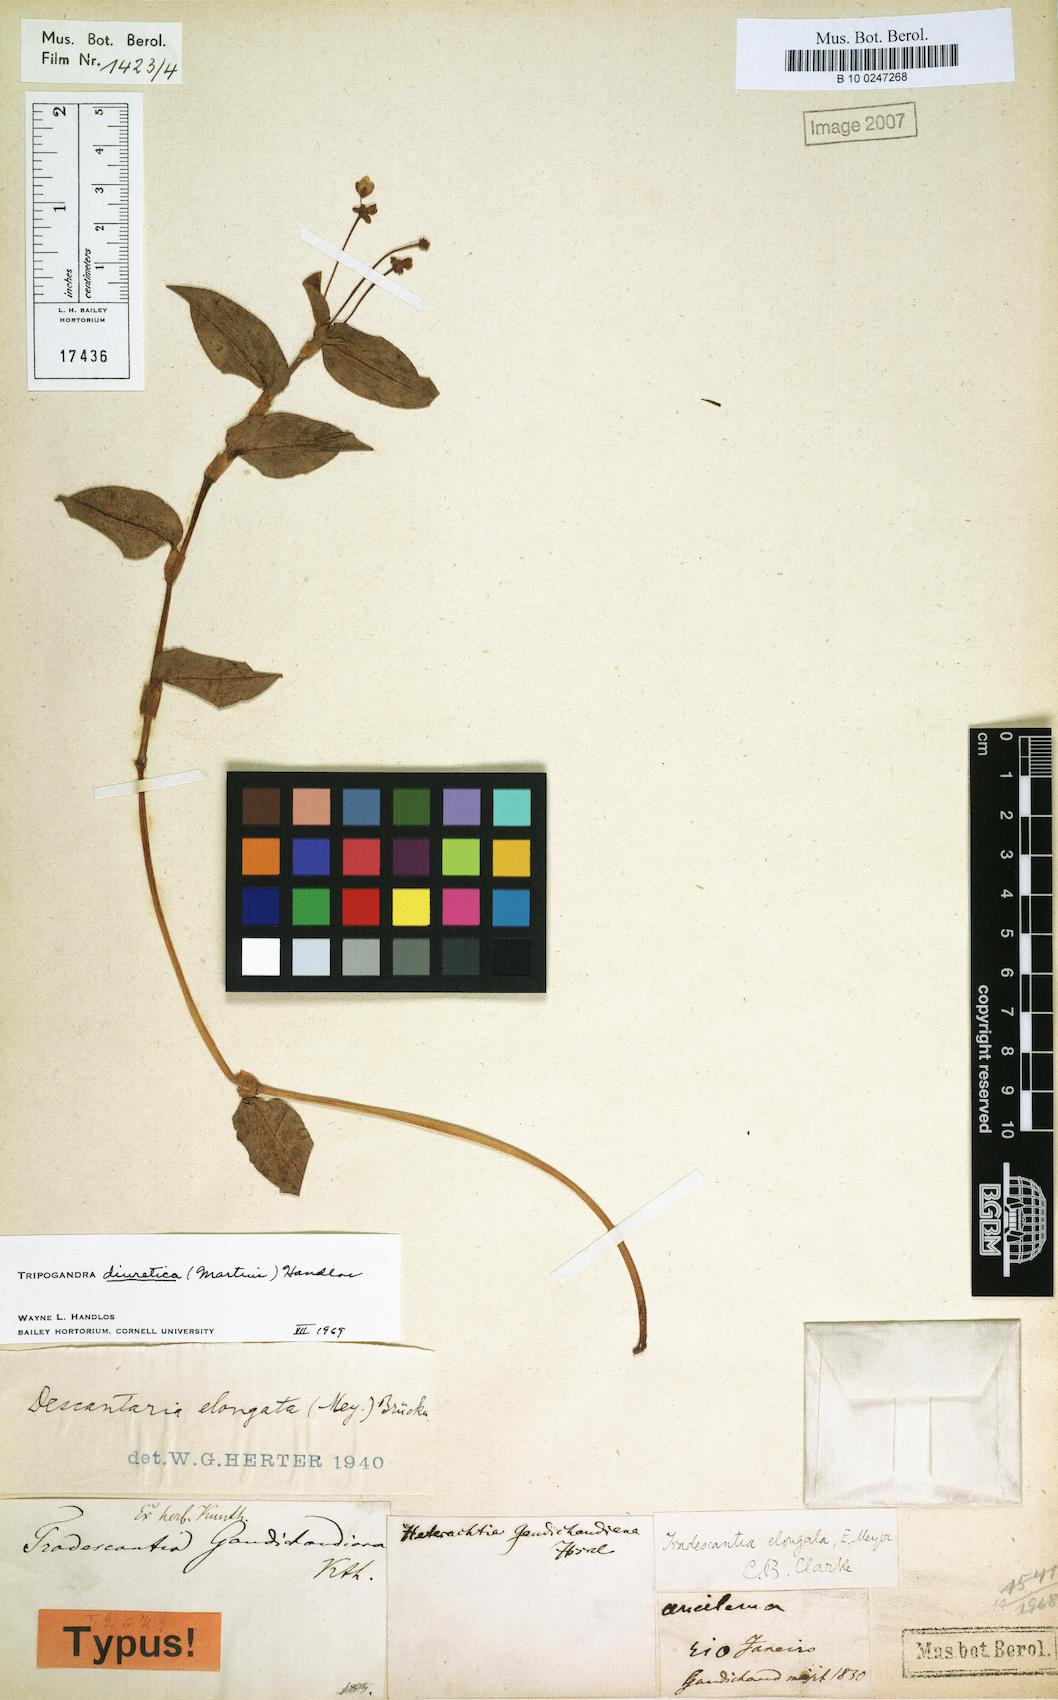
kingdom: Plantae
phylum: Tracheophyta
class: Liliopsida
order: Commelinales
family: Commelinaceae
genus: Callisia
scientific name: Callisia diuretica
